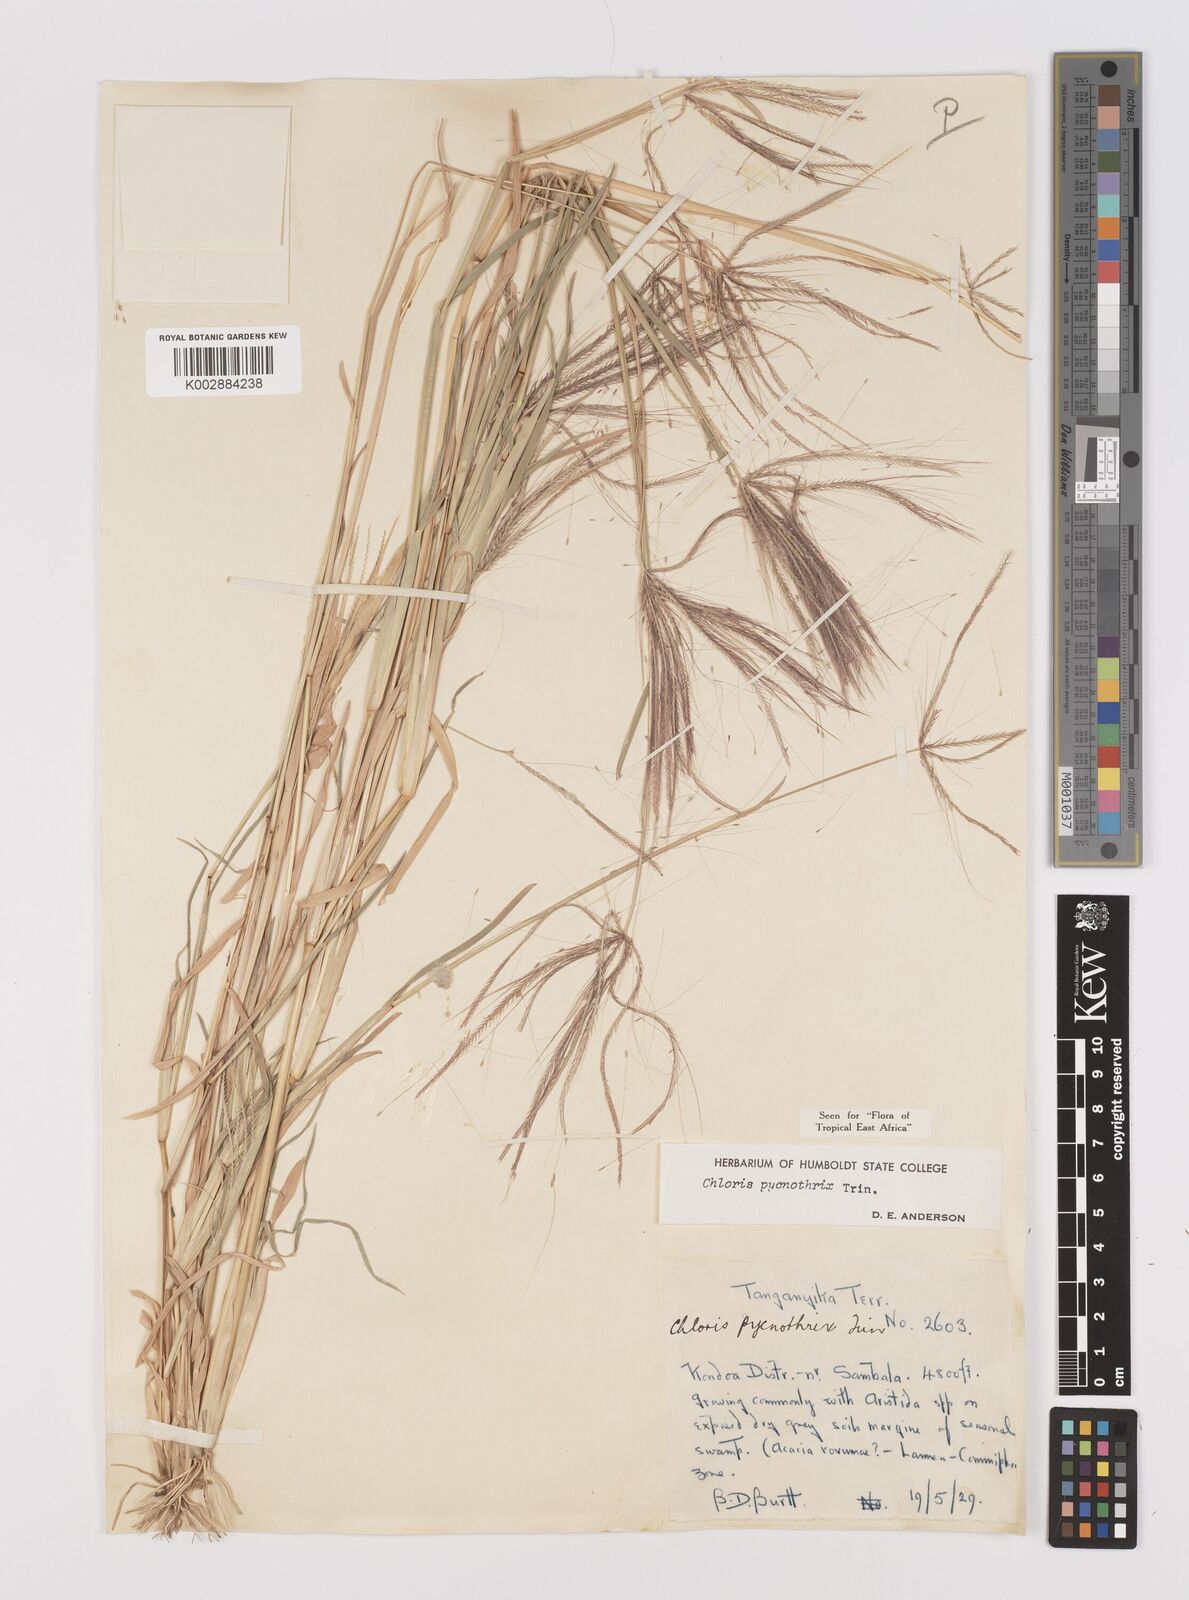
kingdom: Plantae
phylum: Tracheophyta
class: Liliopsida
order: Poales
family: Poaceae
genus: Chloris
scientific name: Chloris pycnothrix
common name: Spiderweb chloris
